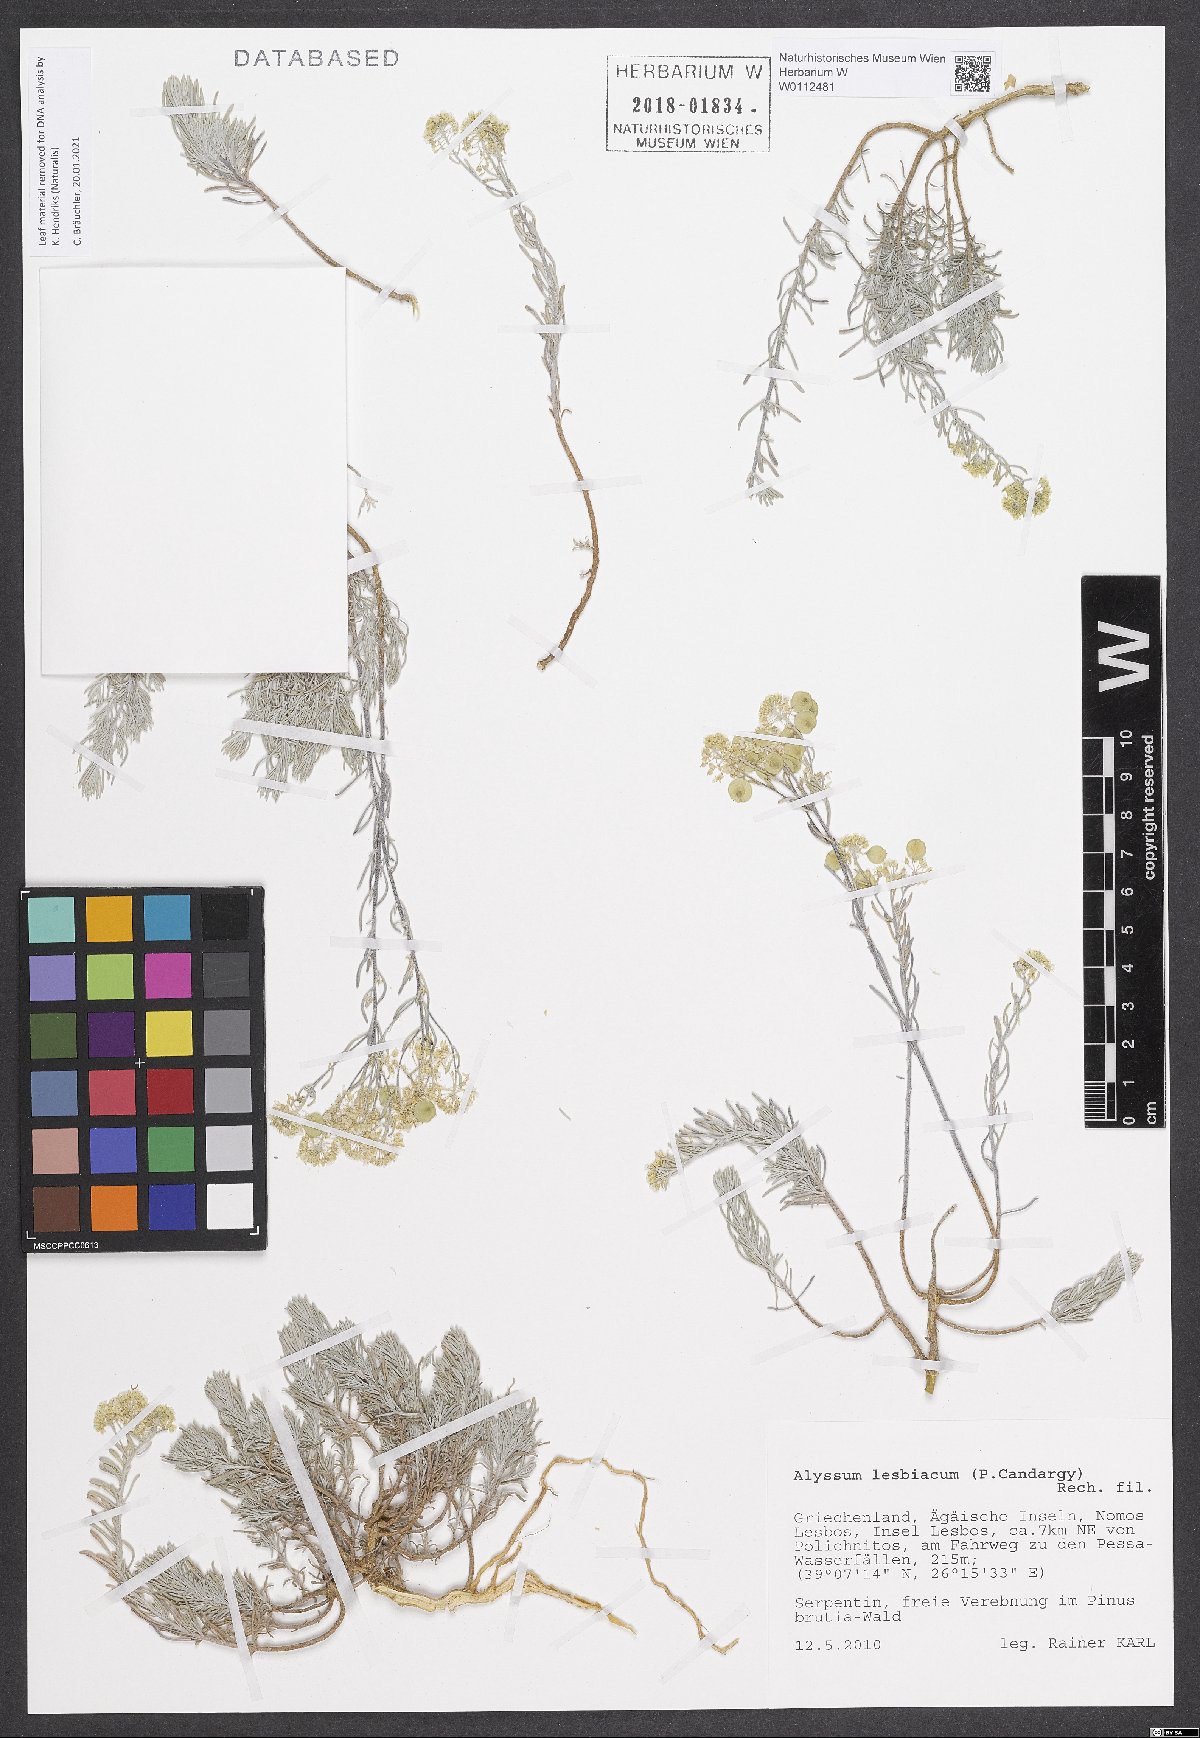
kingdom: Plantae
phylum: Tracheophyta
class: Magnoliopsida
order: Brassicales
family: Brassicaceae
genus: Odontarrhena
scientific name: Odontarrhena lesbiaca
